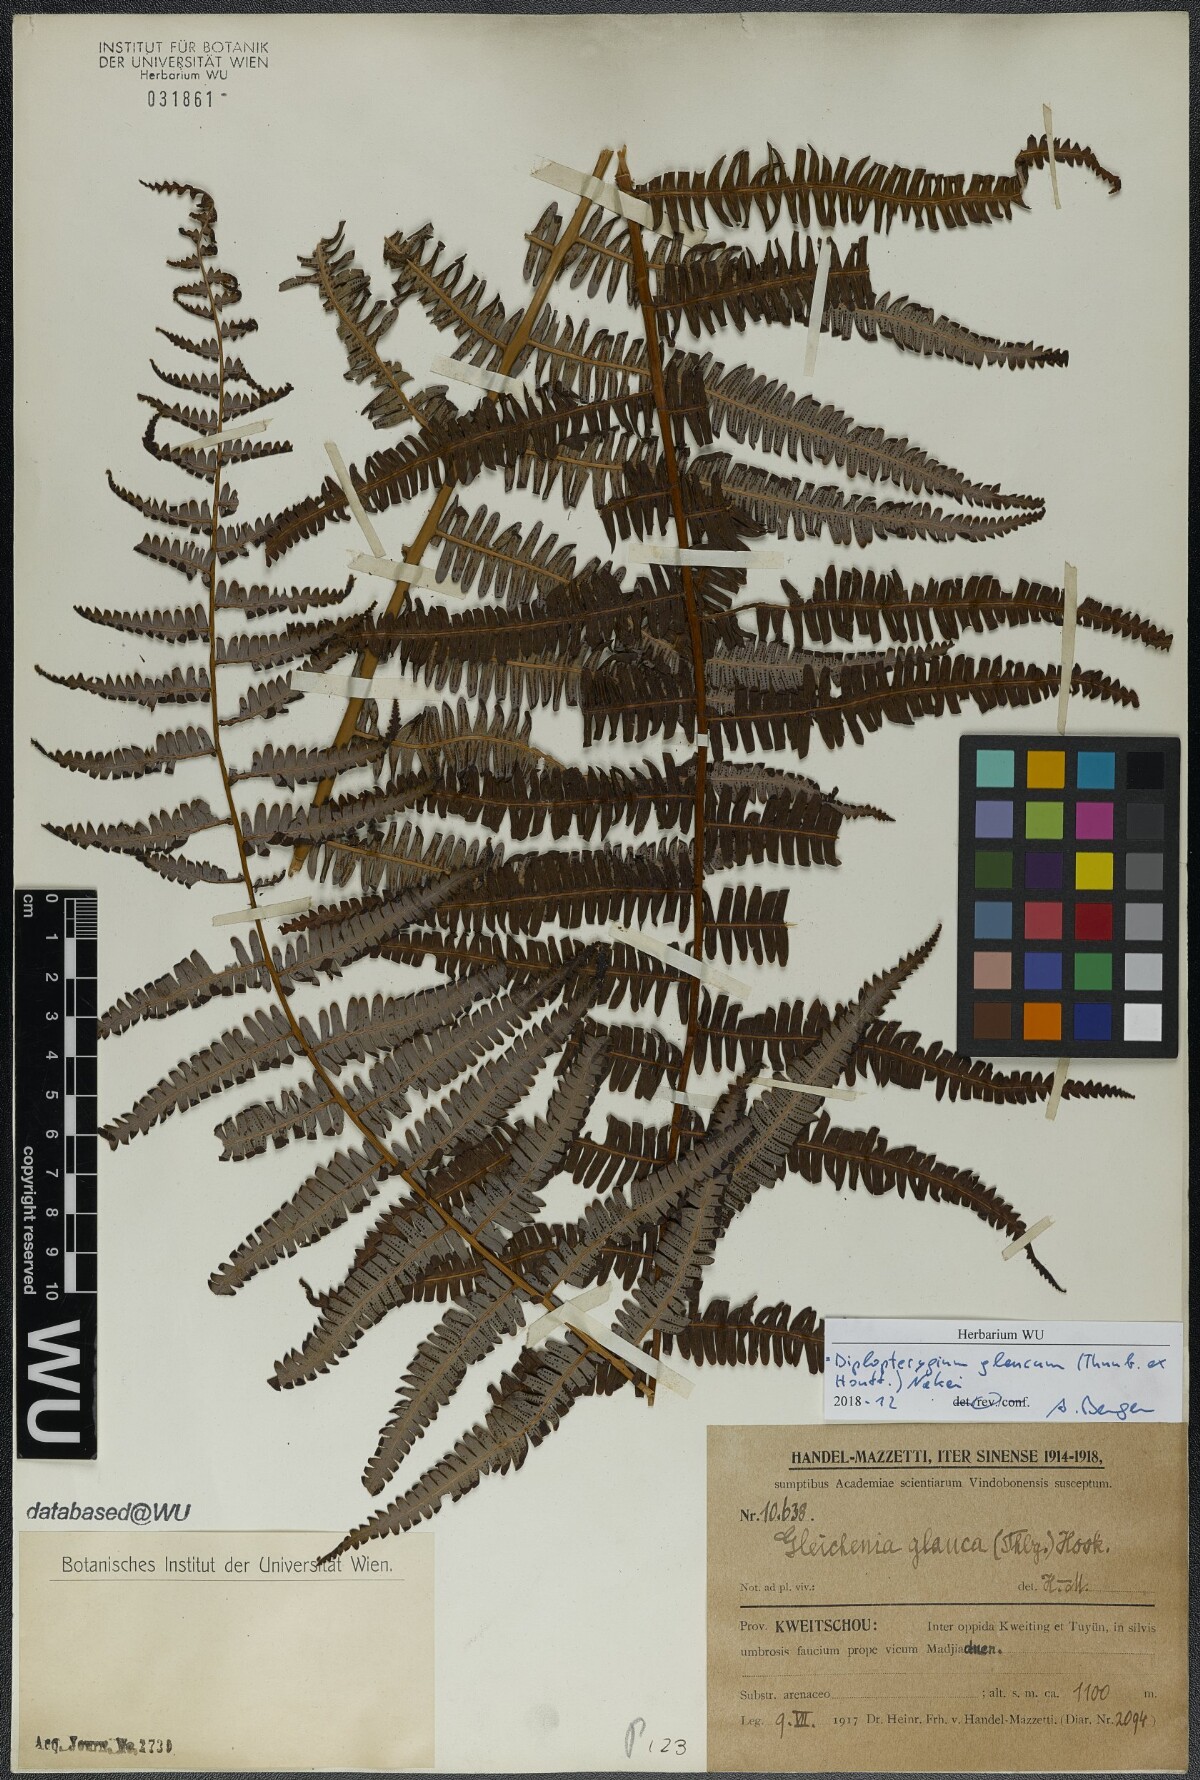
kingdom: Plantae
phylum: Tracheophyta
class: Polypodiopsida
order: Gleicheniales
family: Gleicheniaceae
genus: Diplopterygium
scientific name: Diplopterygium glaucum
